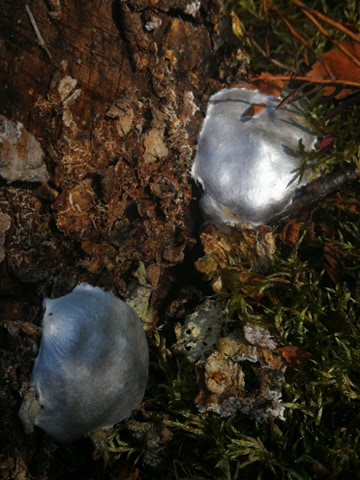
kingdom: Protozoa
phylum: Mycetozoa
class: Myxomycetes
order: Cribrariales
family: Tubiferaceae
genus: Reticularia
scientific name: Reticularia lycoperdon
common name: skinnende støvpude
